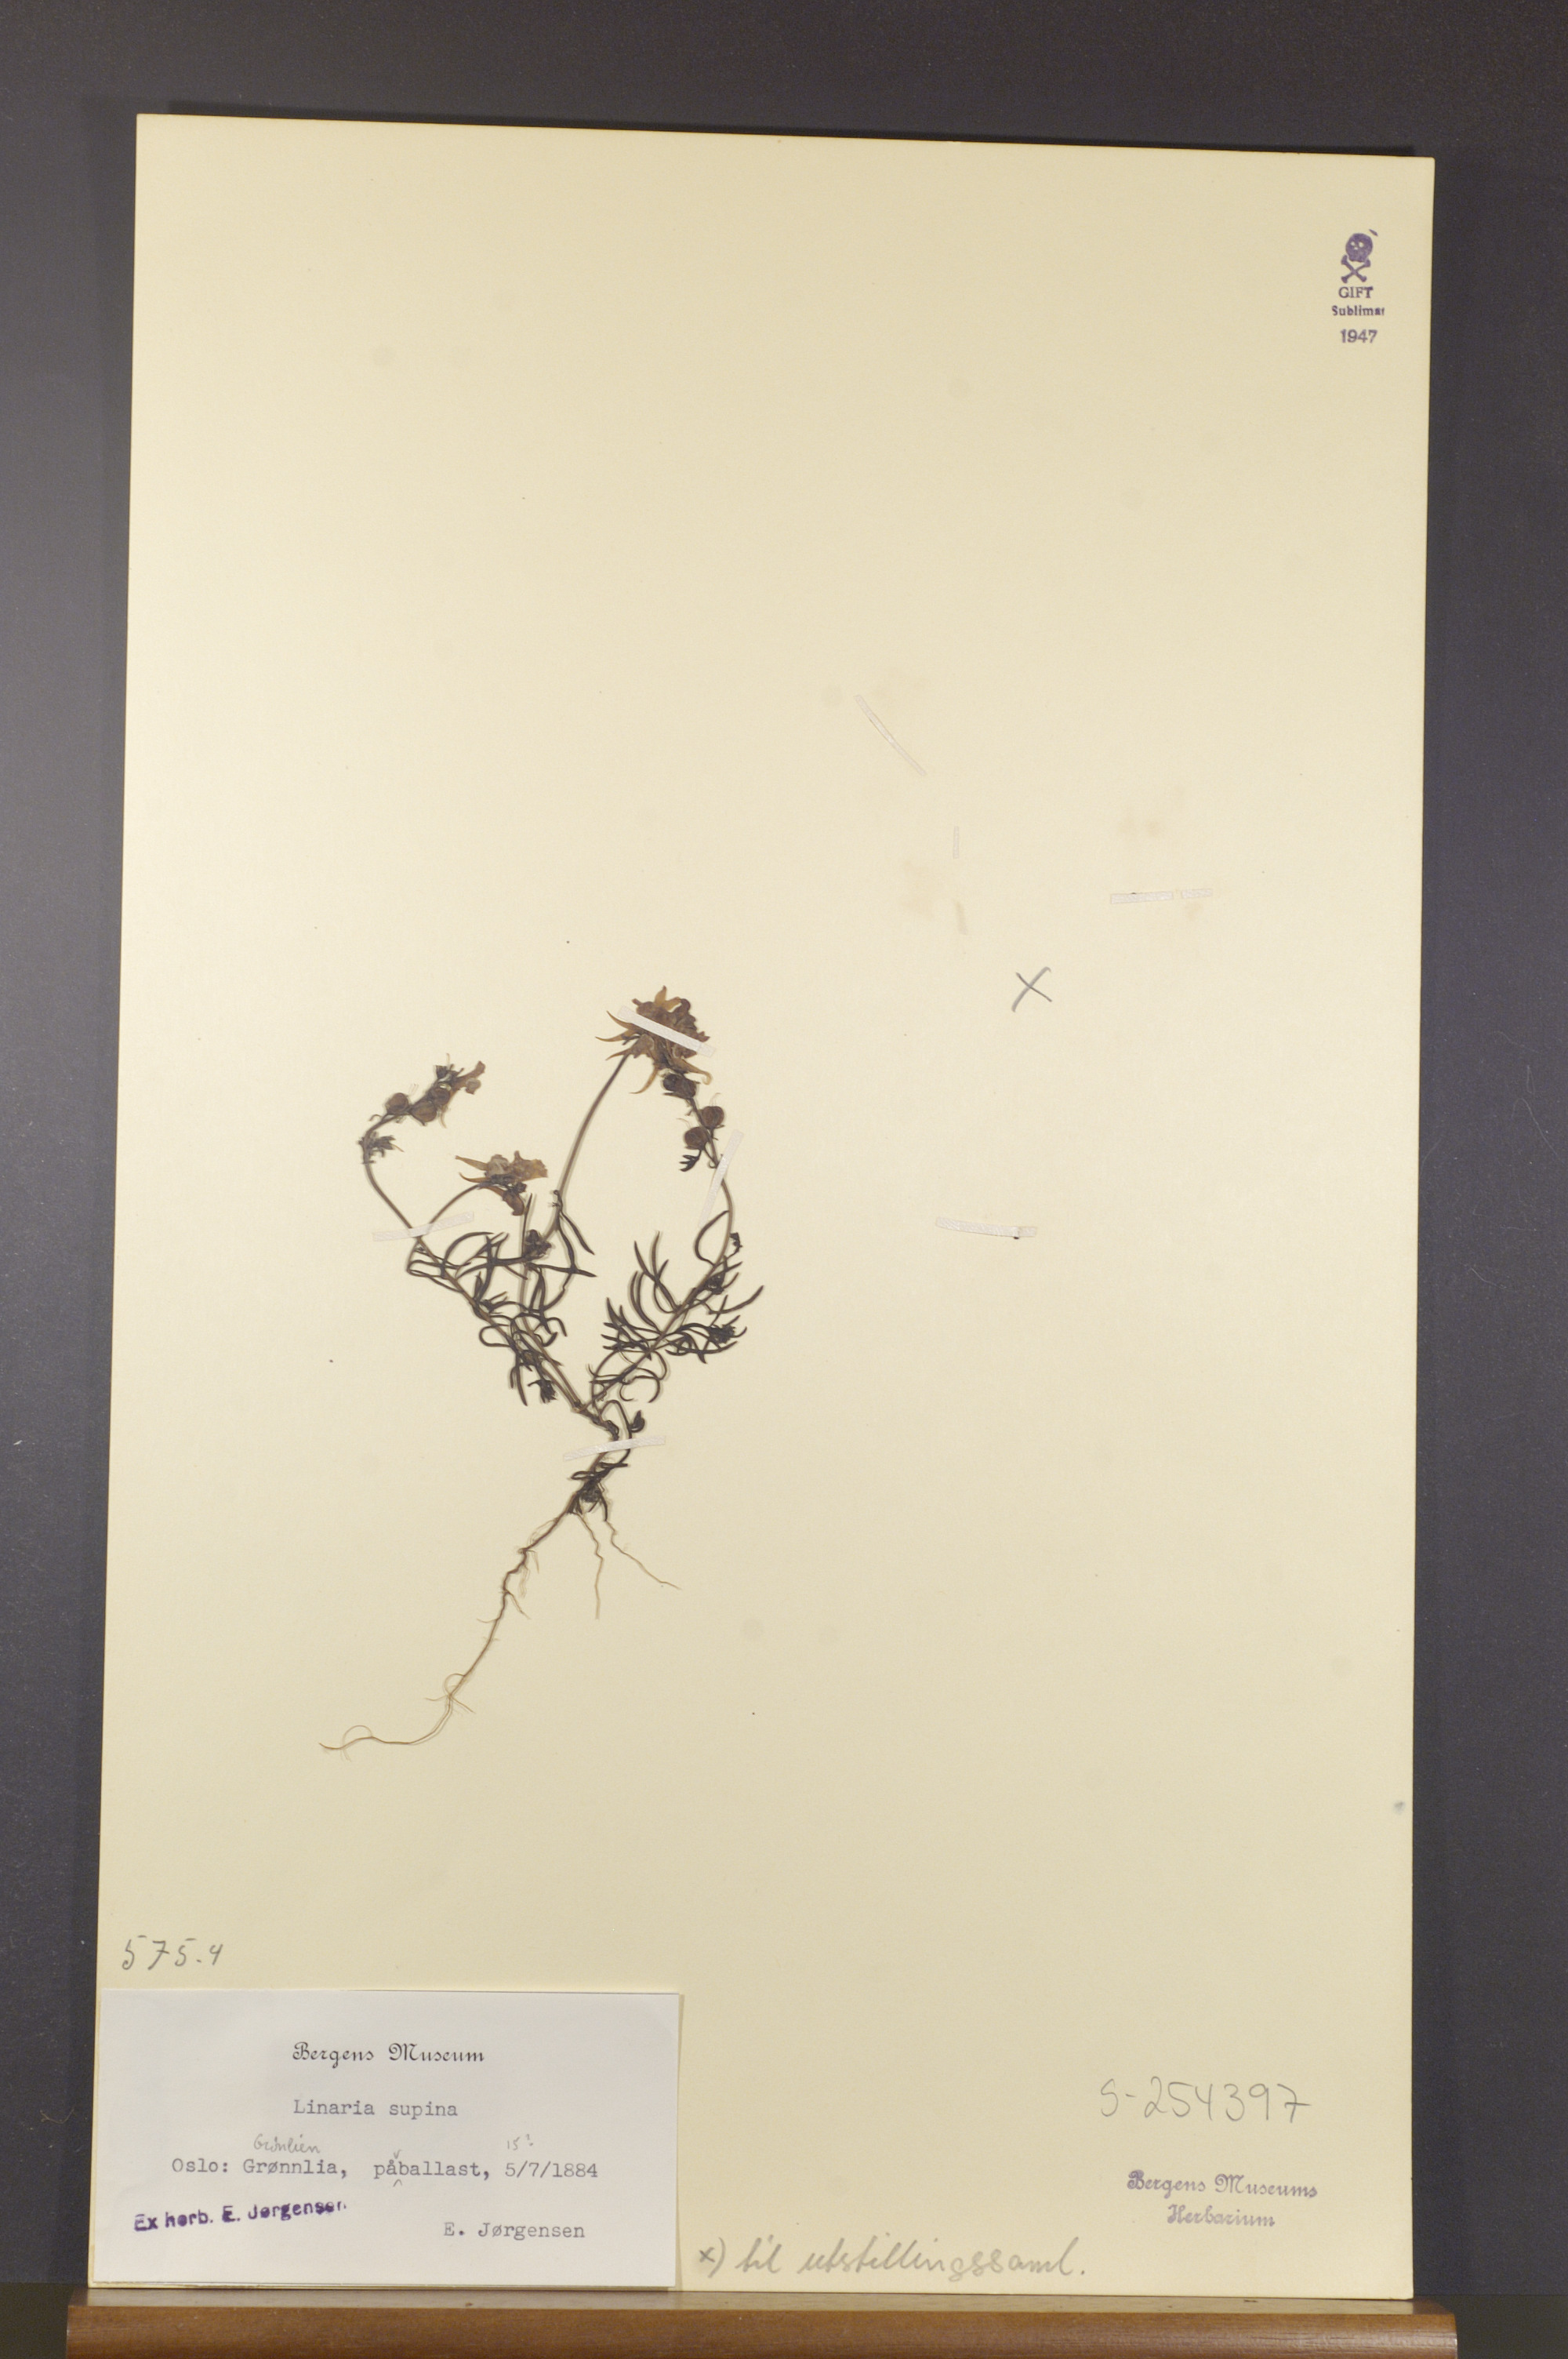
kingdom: Plantae
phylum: Tracheophyta
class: Magnoliopsida
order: Lamiales
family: Plantaginaceae
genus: Linaria
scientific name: Linaria supina
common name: Prostrate toadflax
